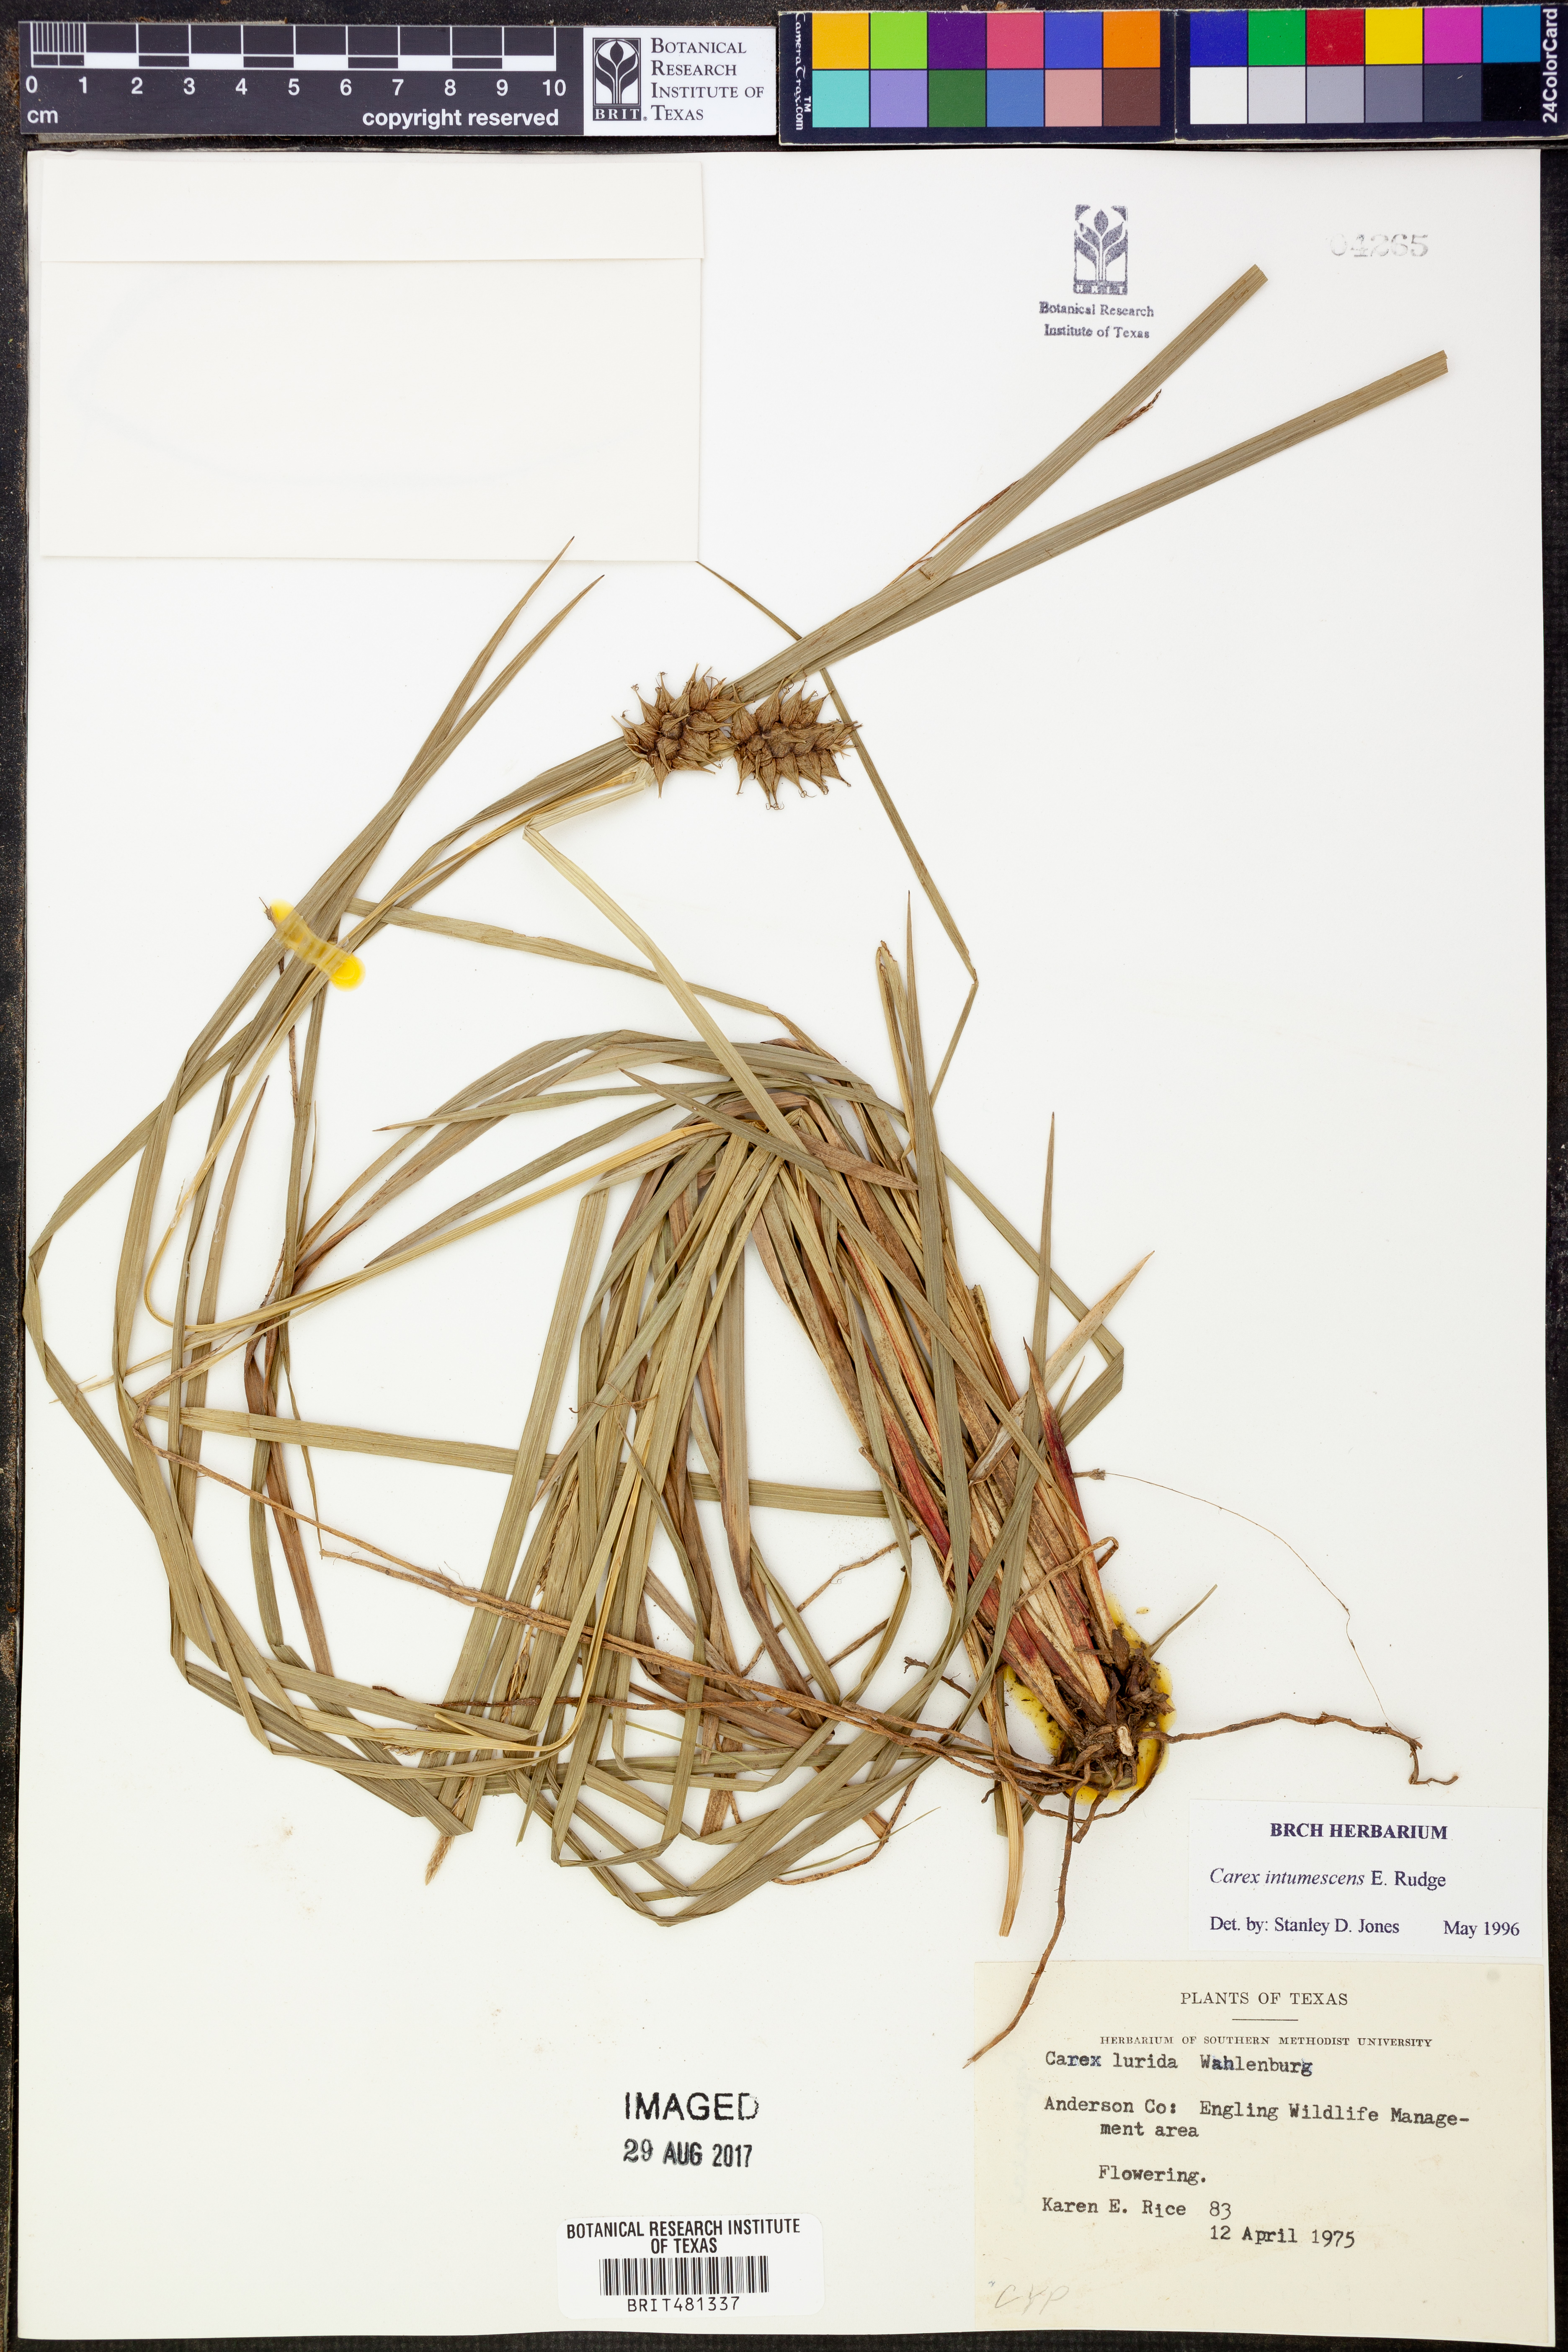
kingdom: Plantae
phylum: Tracheophyta
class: Liliopsida
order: Poales
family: Cyperaceae
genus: Carex
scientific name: Carex intumescens
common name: Greater bladder sedge
